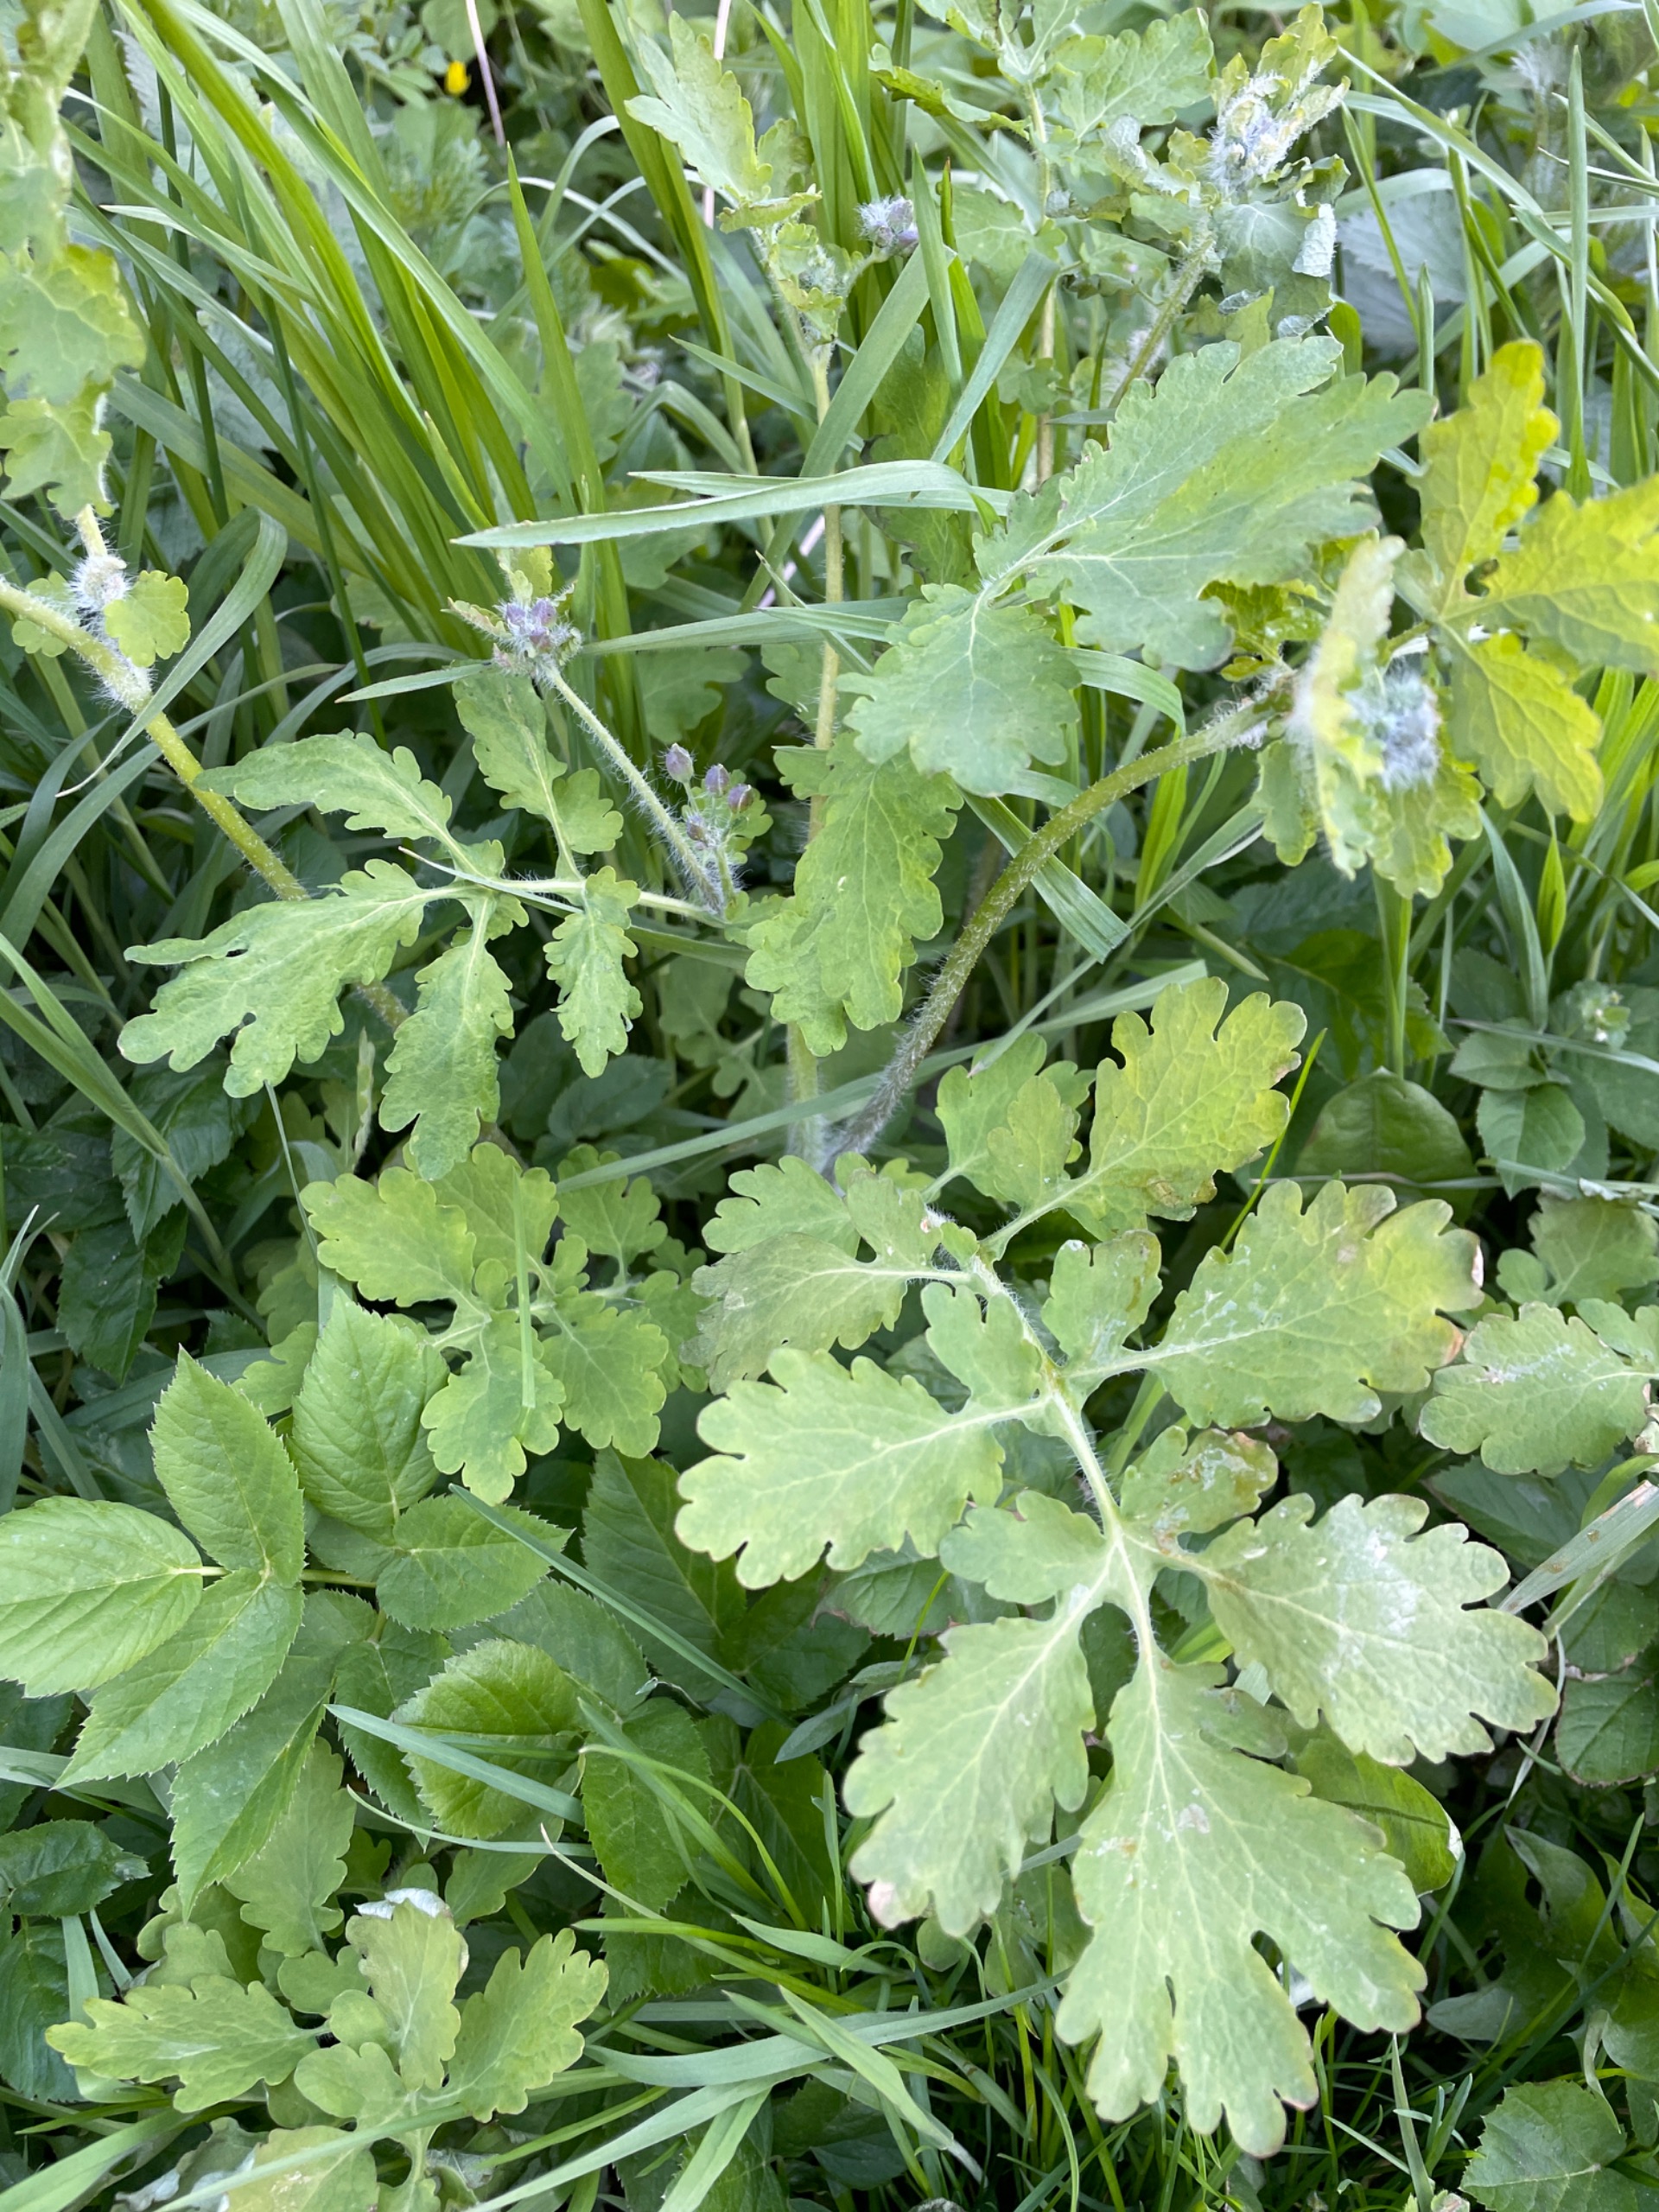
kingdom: Plantae
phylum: Tracheophyta
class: Magnoliopsida
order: Ranunculales
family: Papaveraceae
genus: Chelidonium
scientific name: Chelidonium majus
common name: Svaleurt
